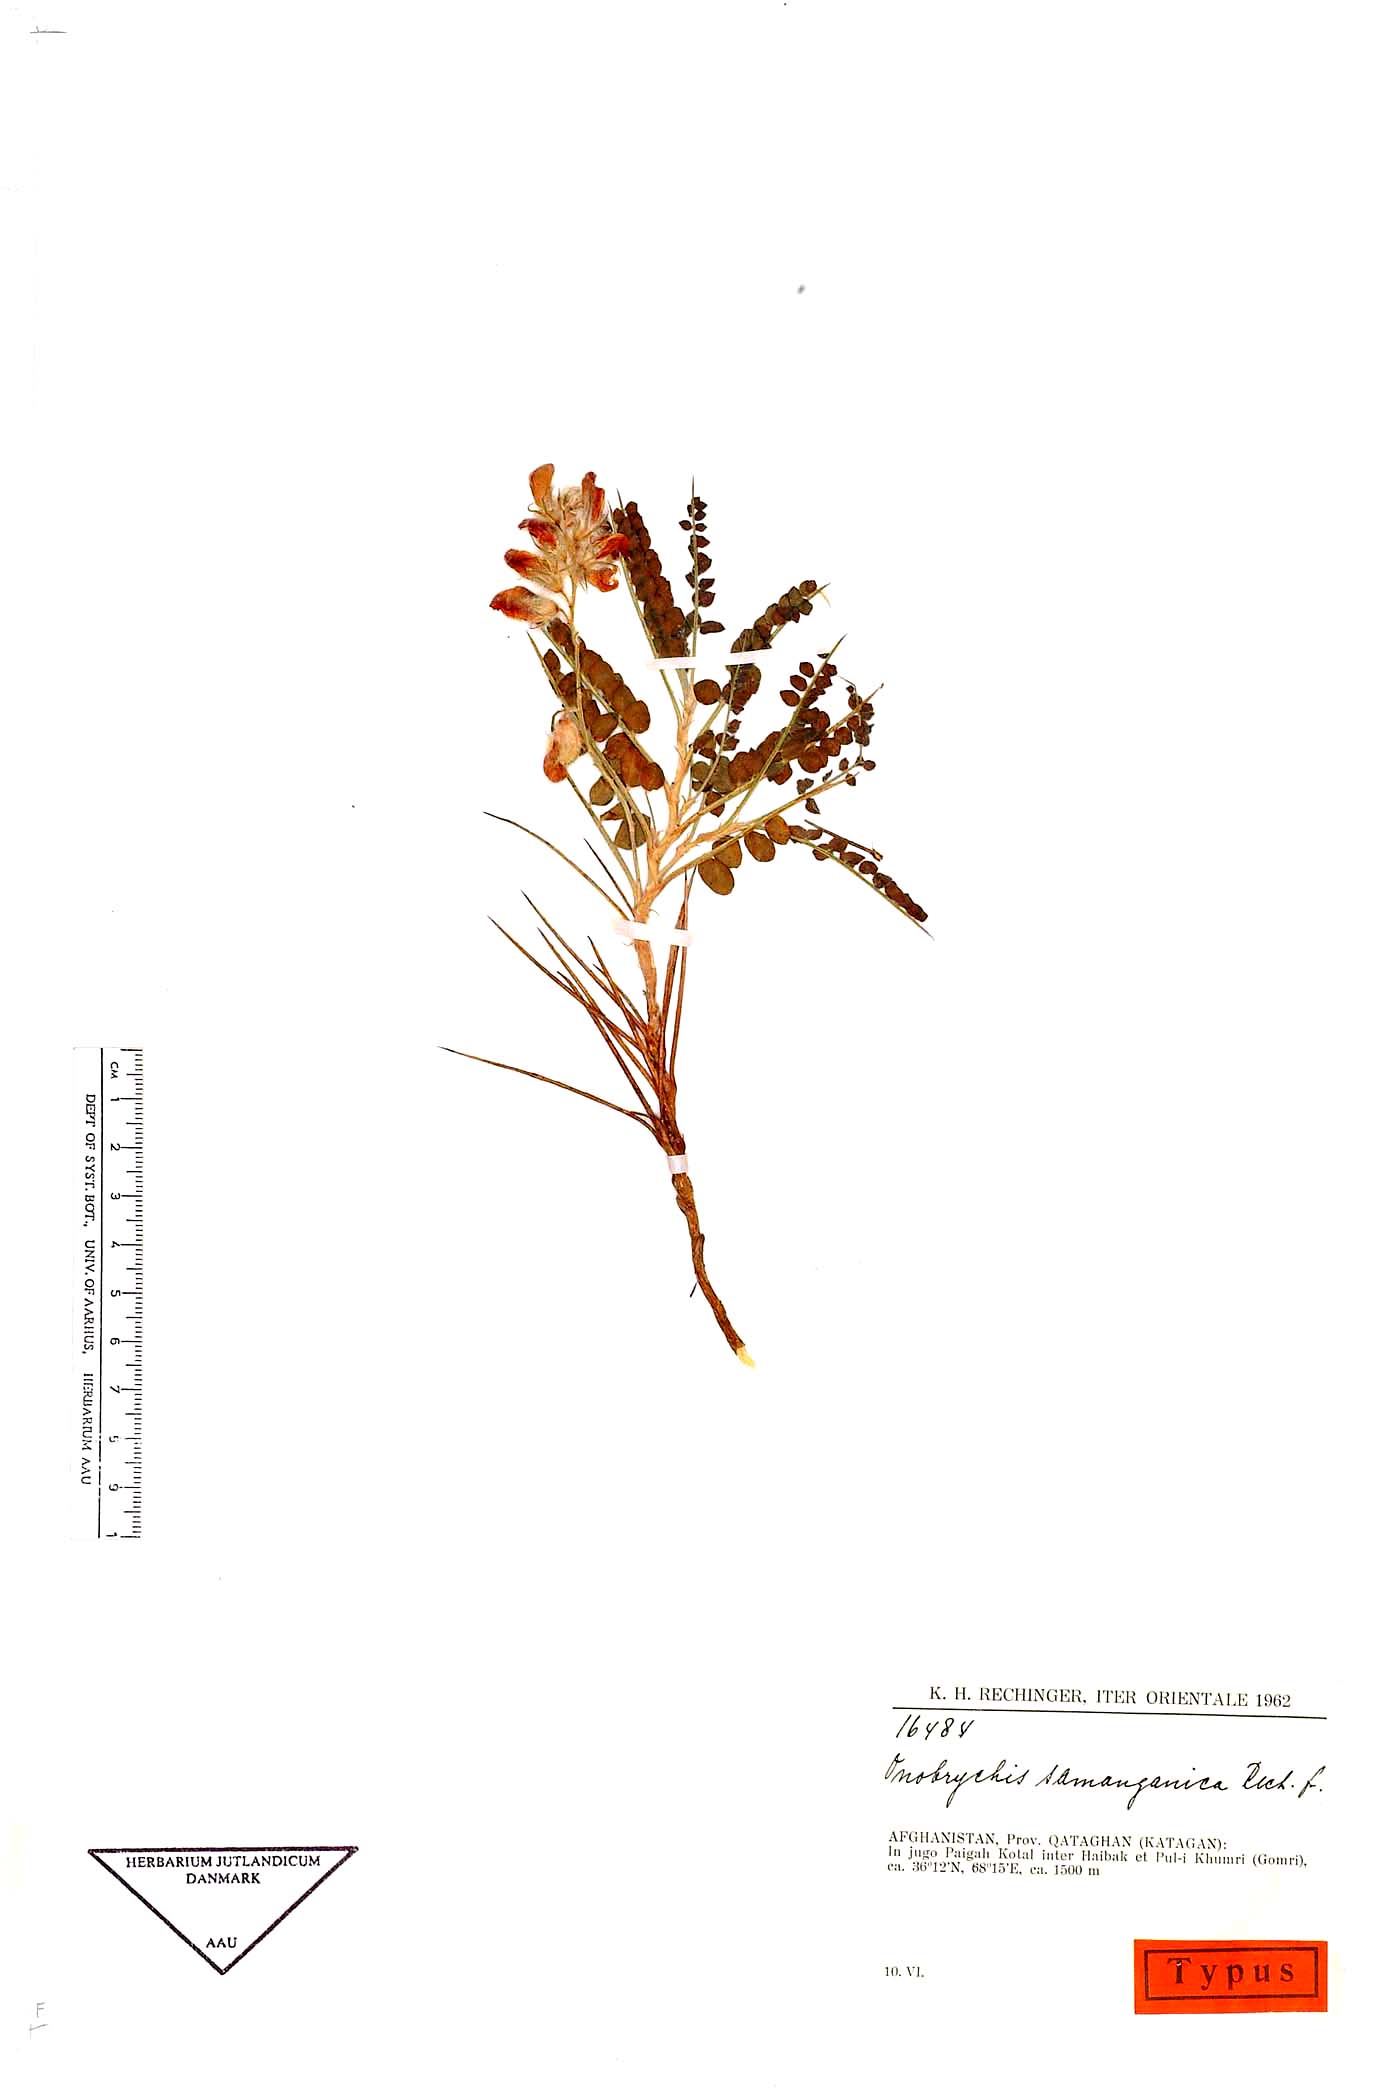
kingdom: Plantae
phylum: Tracheophyta
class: Magnoliopsida
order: Fabales
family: Fabaceae
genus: Onobrychis
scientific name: Onobrychis samanganica
